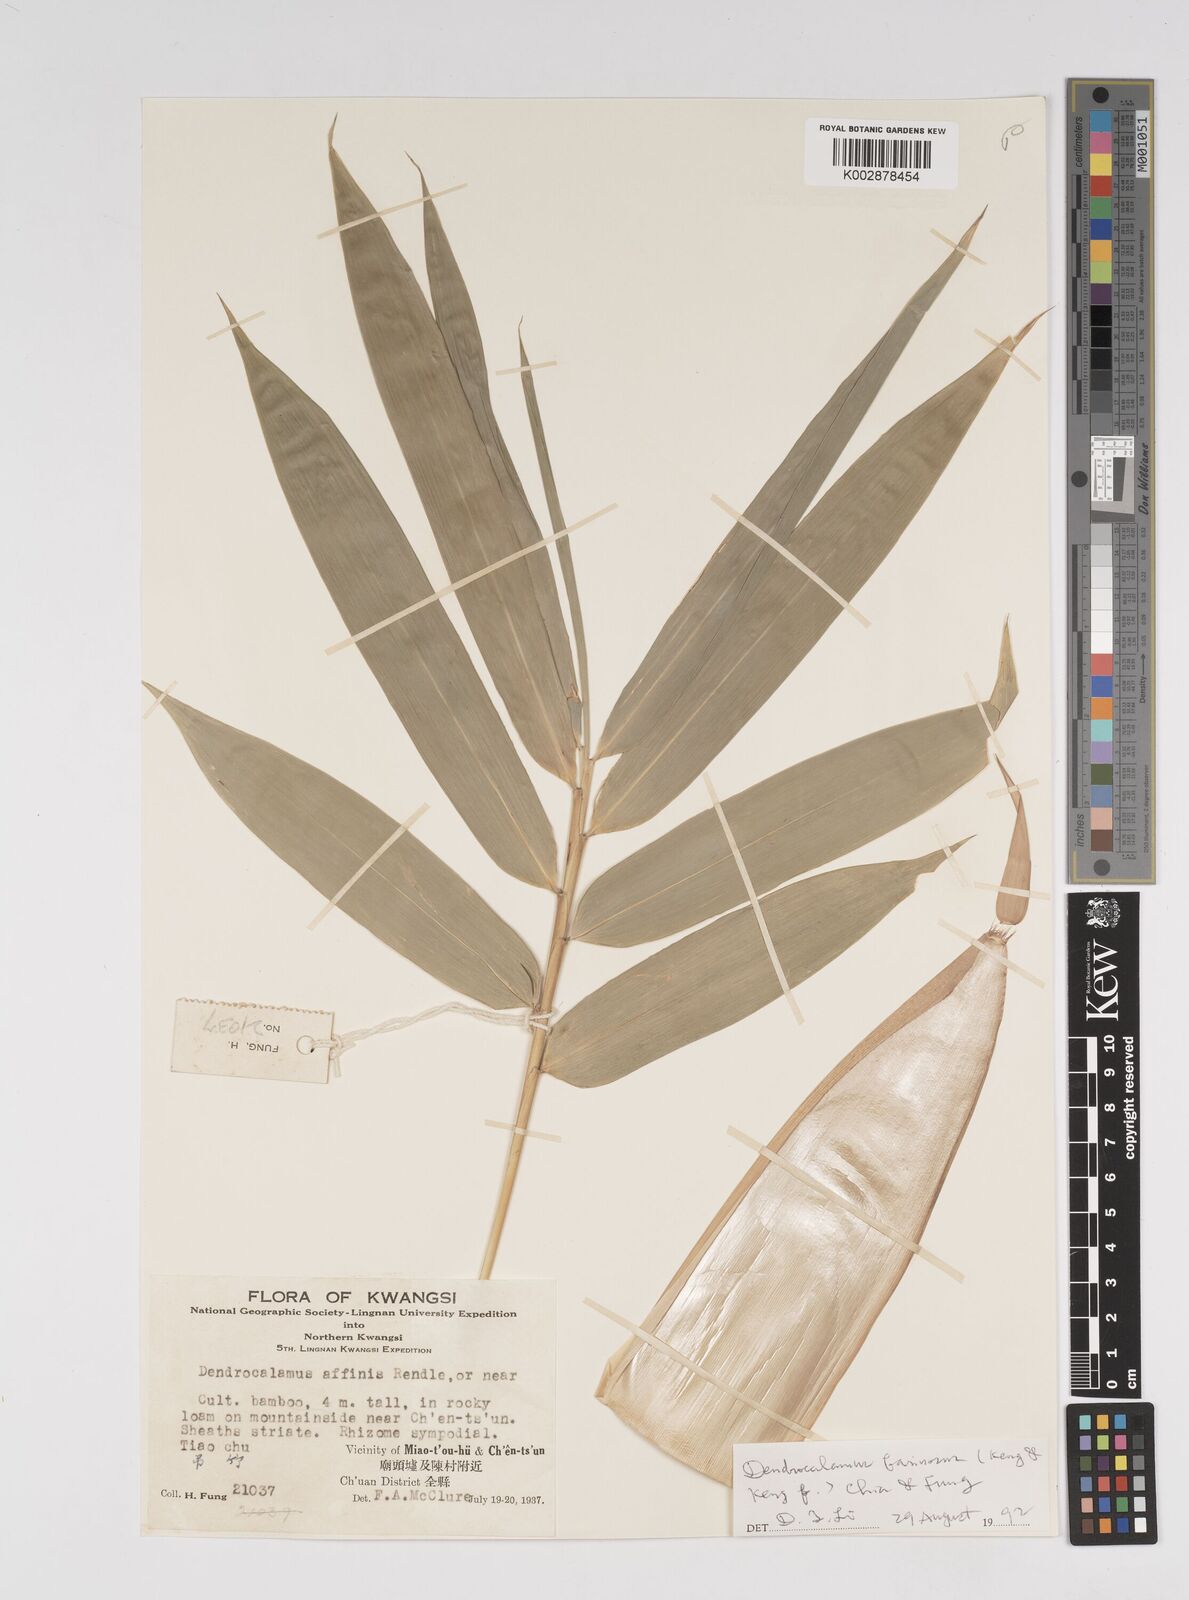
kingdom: Plantae
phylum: Tracheophyta
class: Liliopsida
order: Poales
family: Poaceae
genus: Dendrocalamus
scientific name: Dendrocalamus farinosus
